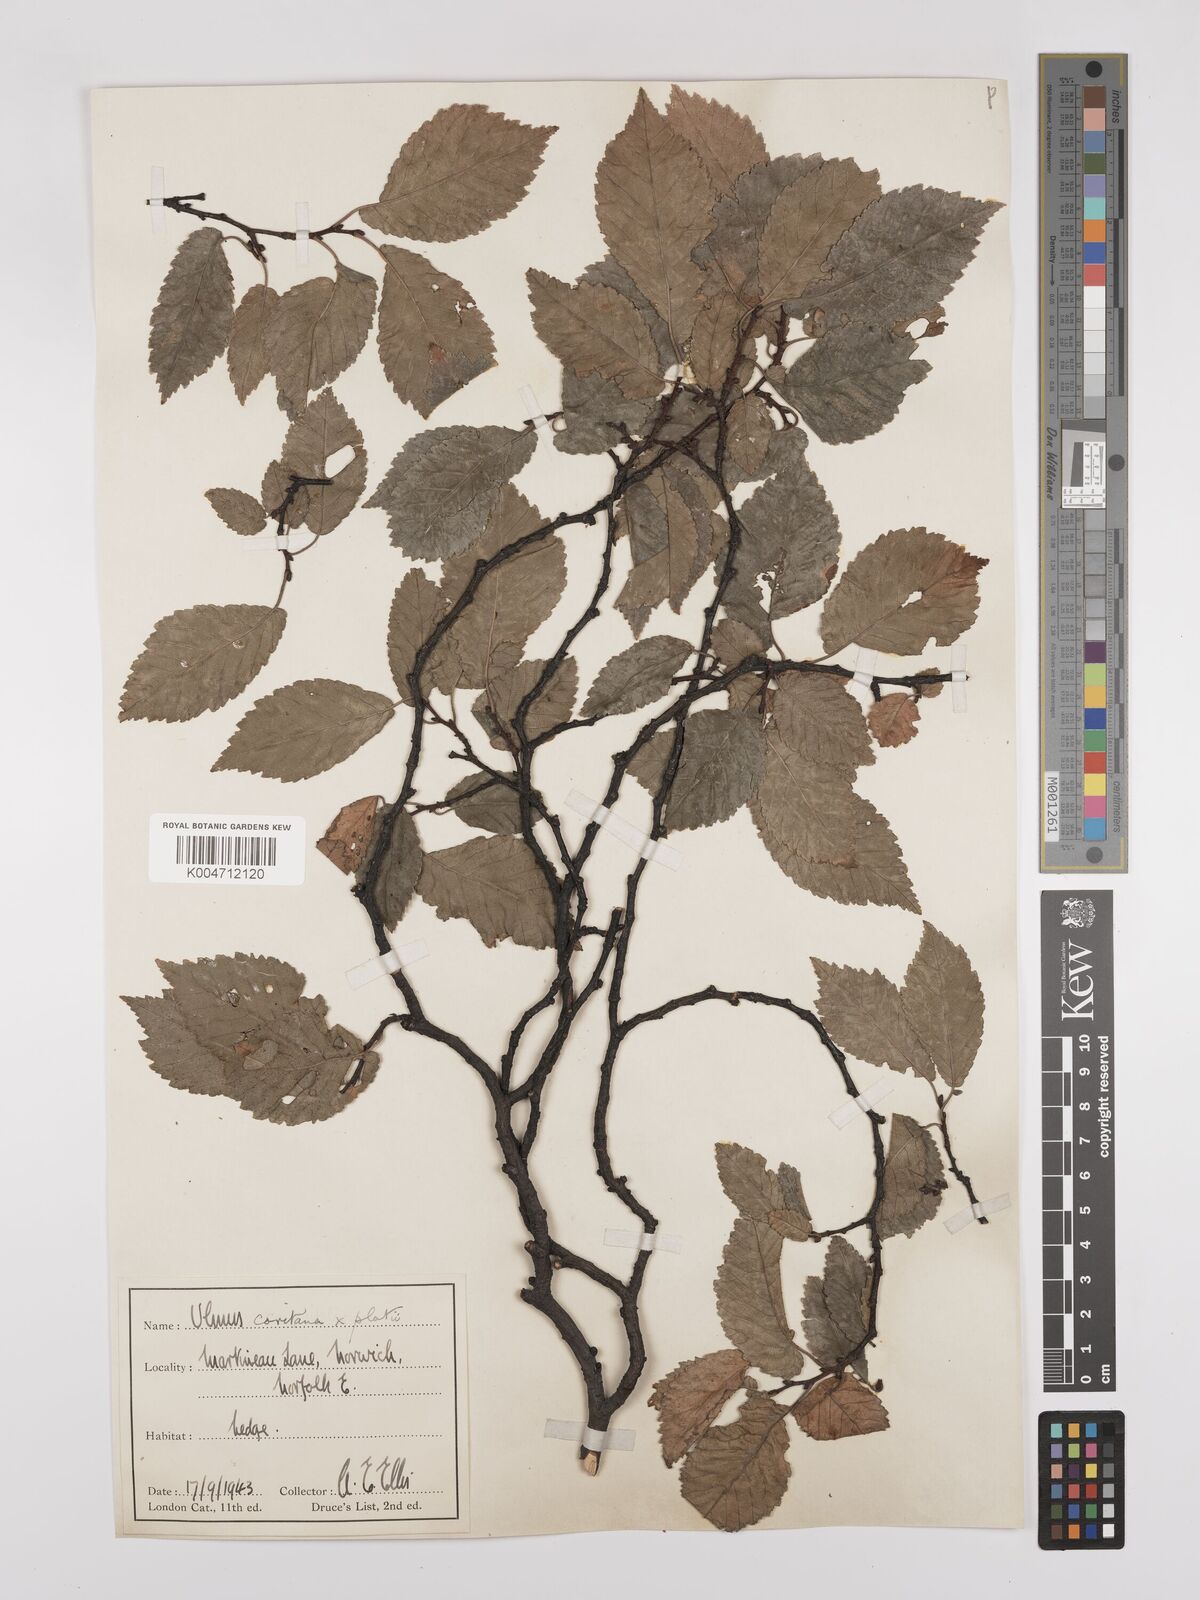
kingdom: Plantae
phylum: Tracheophyta
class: Magnoliopsida
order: Rosales
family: Ulmaceae
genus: Ulmus
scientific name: Ulmus minor
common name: Small-leaved elm
